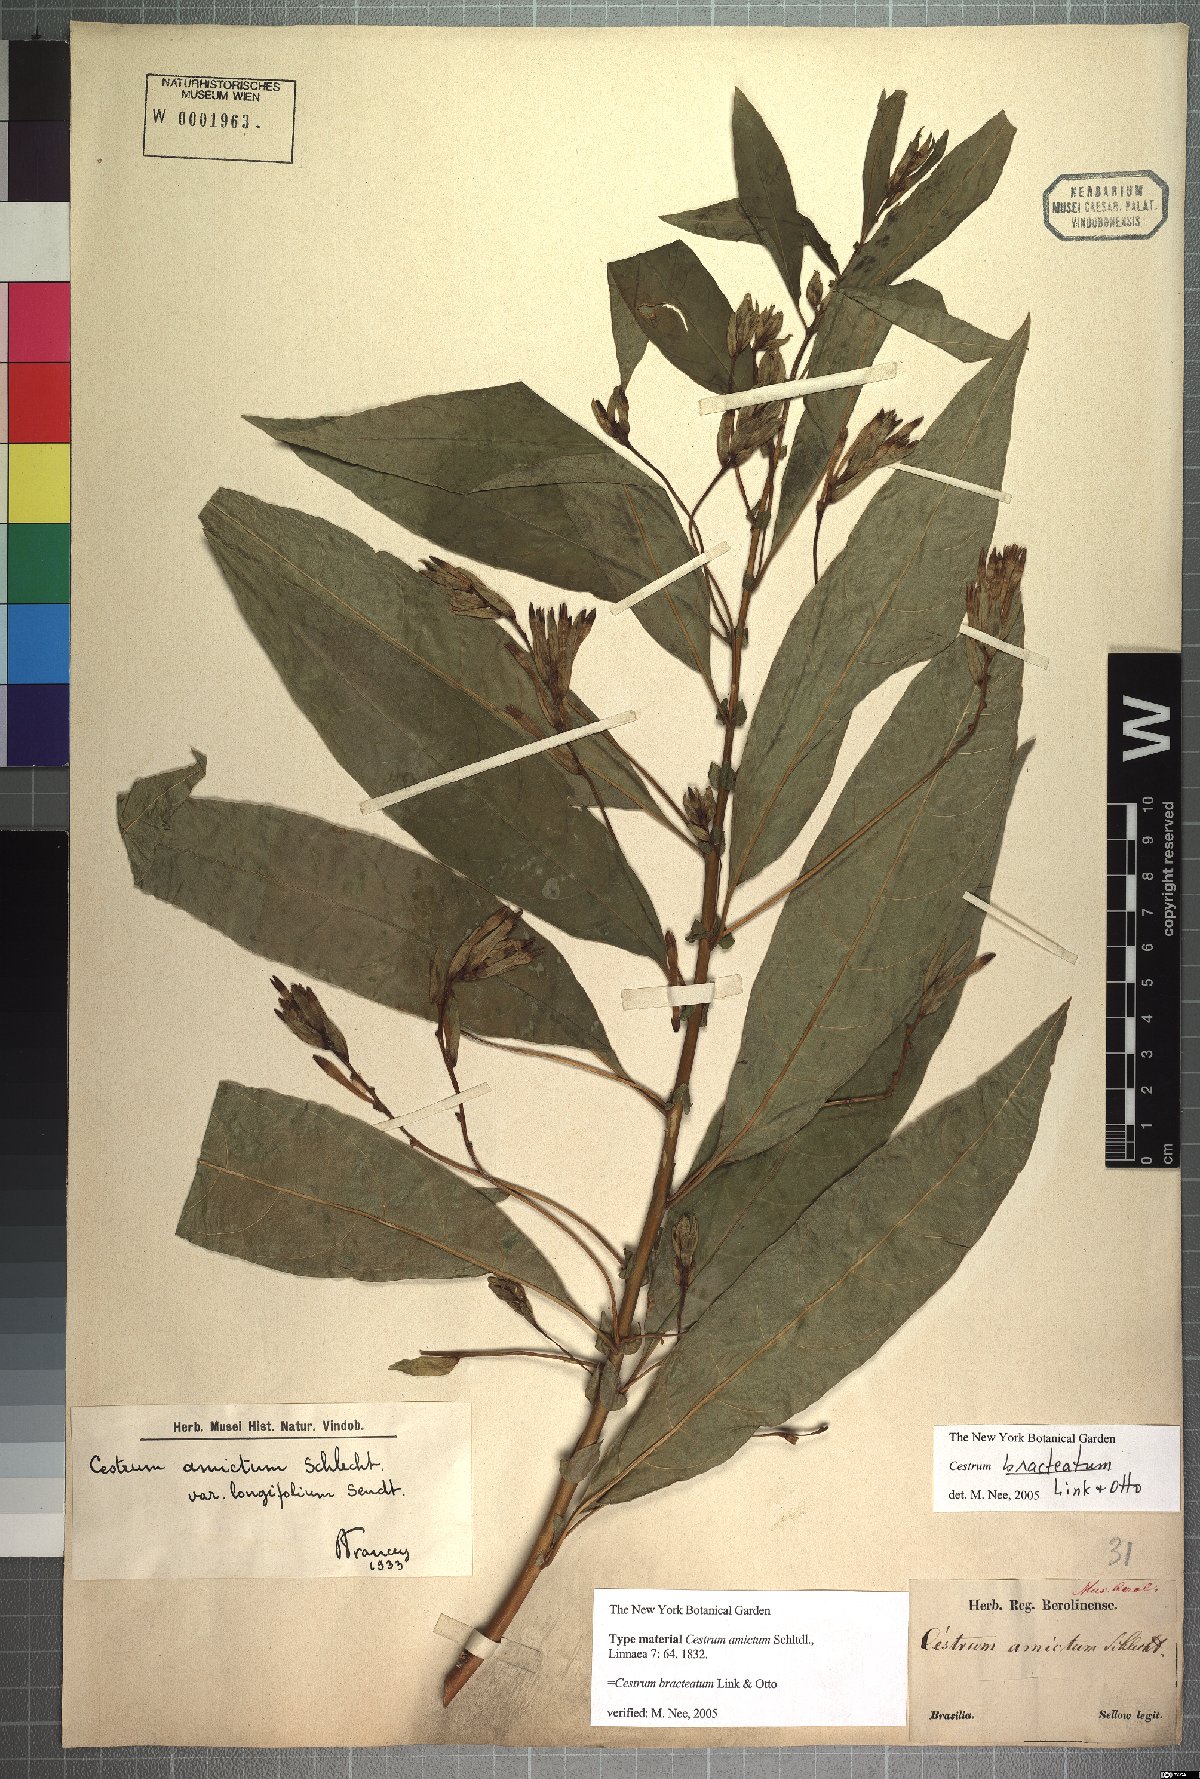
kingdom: Plantae
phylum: Tracheophyta
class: Magnoliopsida
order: Solanales
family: Solanaceae
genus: Cestrum
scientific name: Cestrum bracteatum
